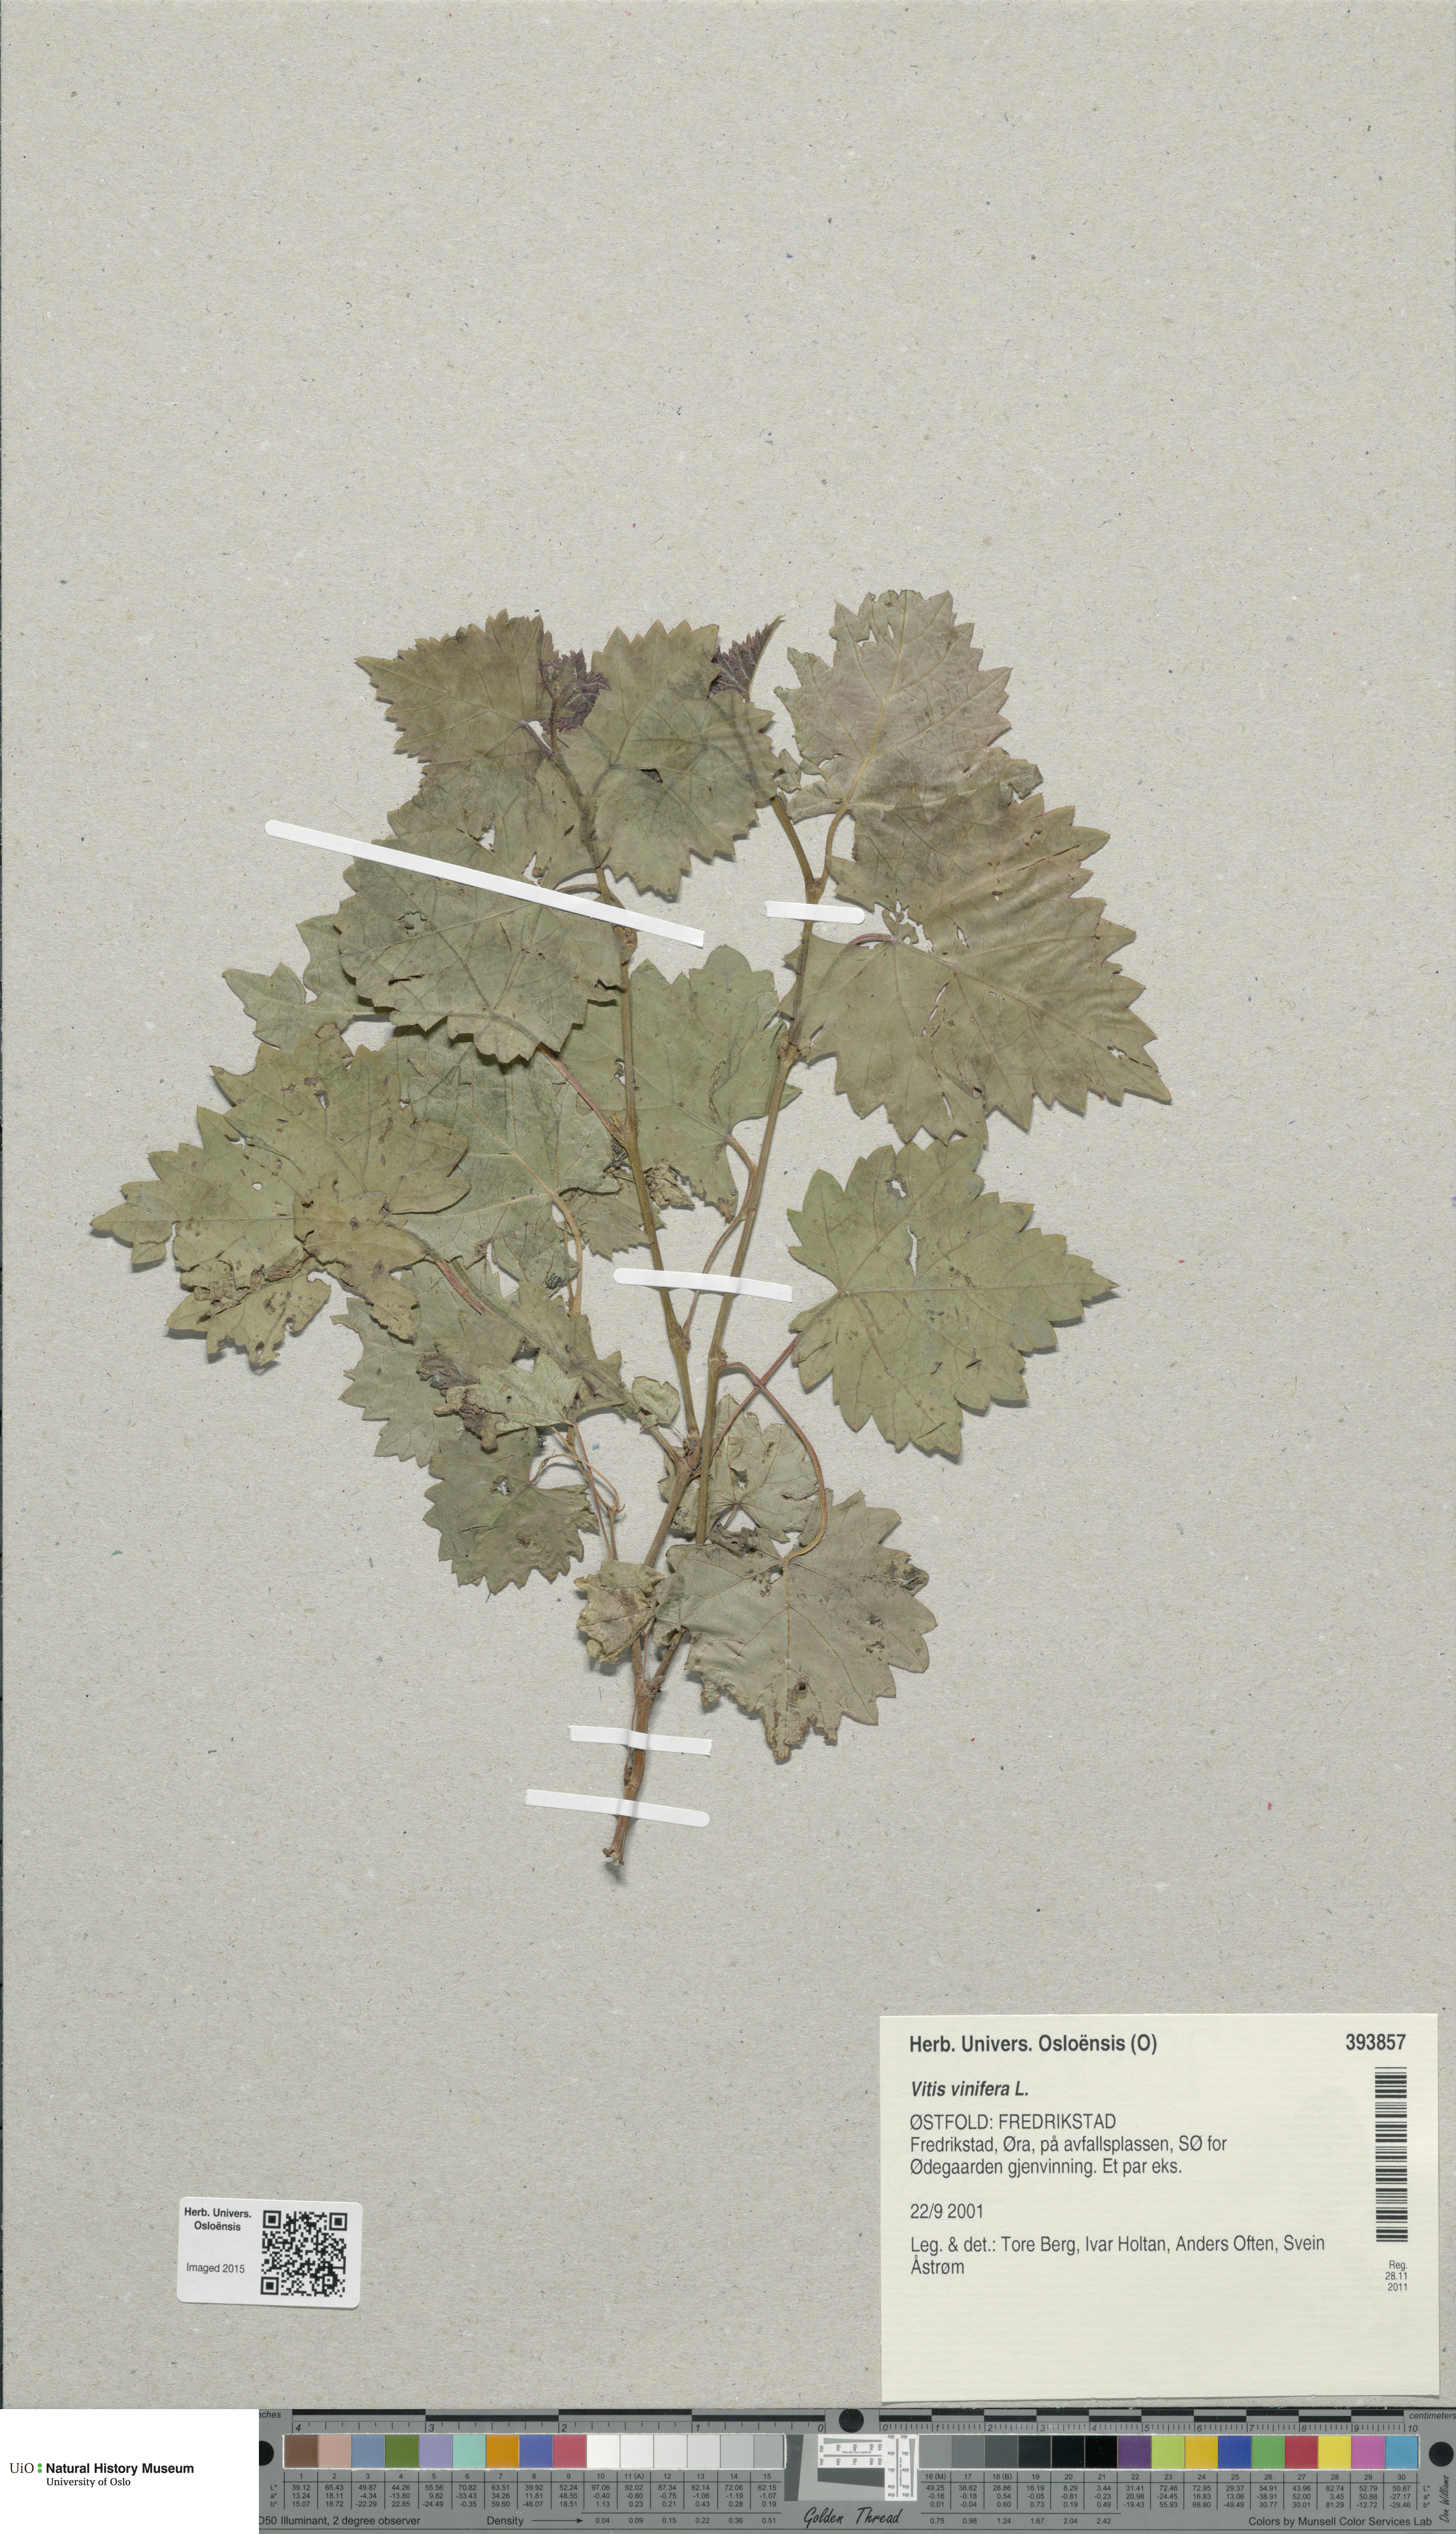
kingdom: Plantae
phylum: Tracheophyta
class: Magnoliopsida
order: Vitales
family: Vitaceae
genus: Vitis
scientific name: Vitis vinifera
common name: Grape-vine
